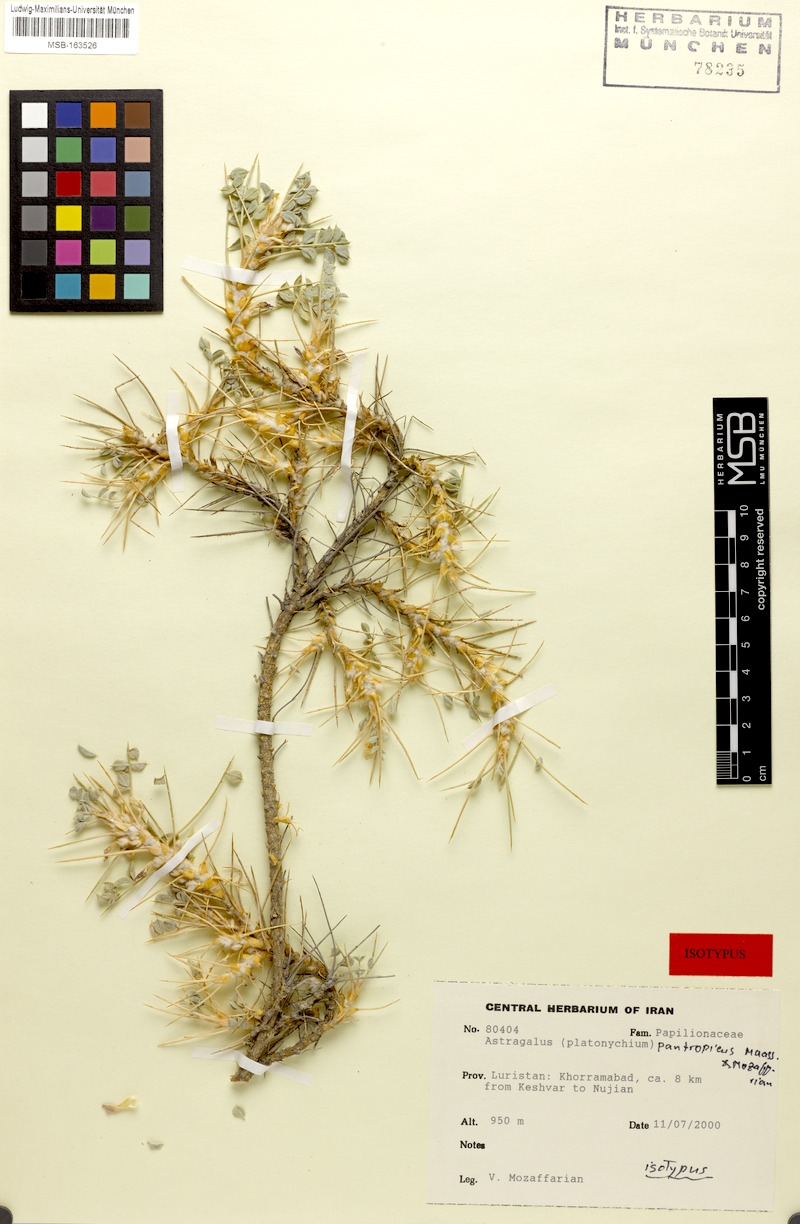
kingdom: Plantae
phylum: Tracheophyta
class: Magnoliopsida
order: Fabales
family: Fabaceae
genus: Astragalus
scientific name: Astragalus sirjaevii
